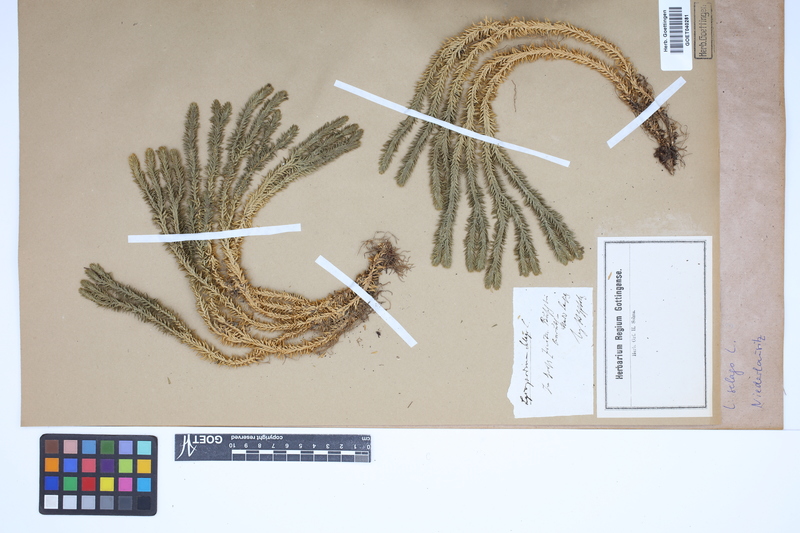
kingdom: Plantae
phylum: Tracheophyta
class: Lycopodiopsida
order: Lycopodiales
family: Lycopodiaceae
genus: Huperzia
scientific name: Huperzia selago
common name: Northern firmoss
